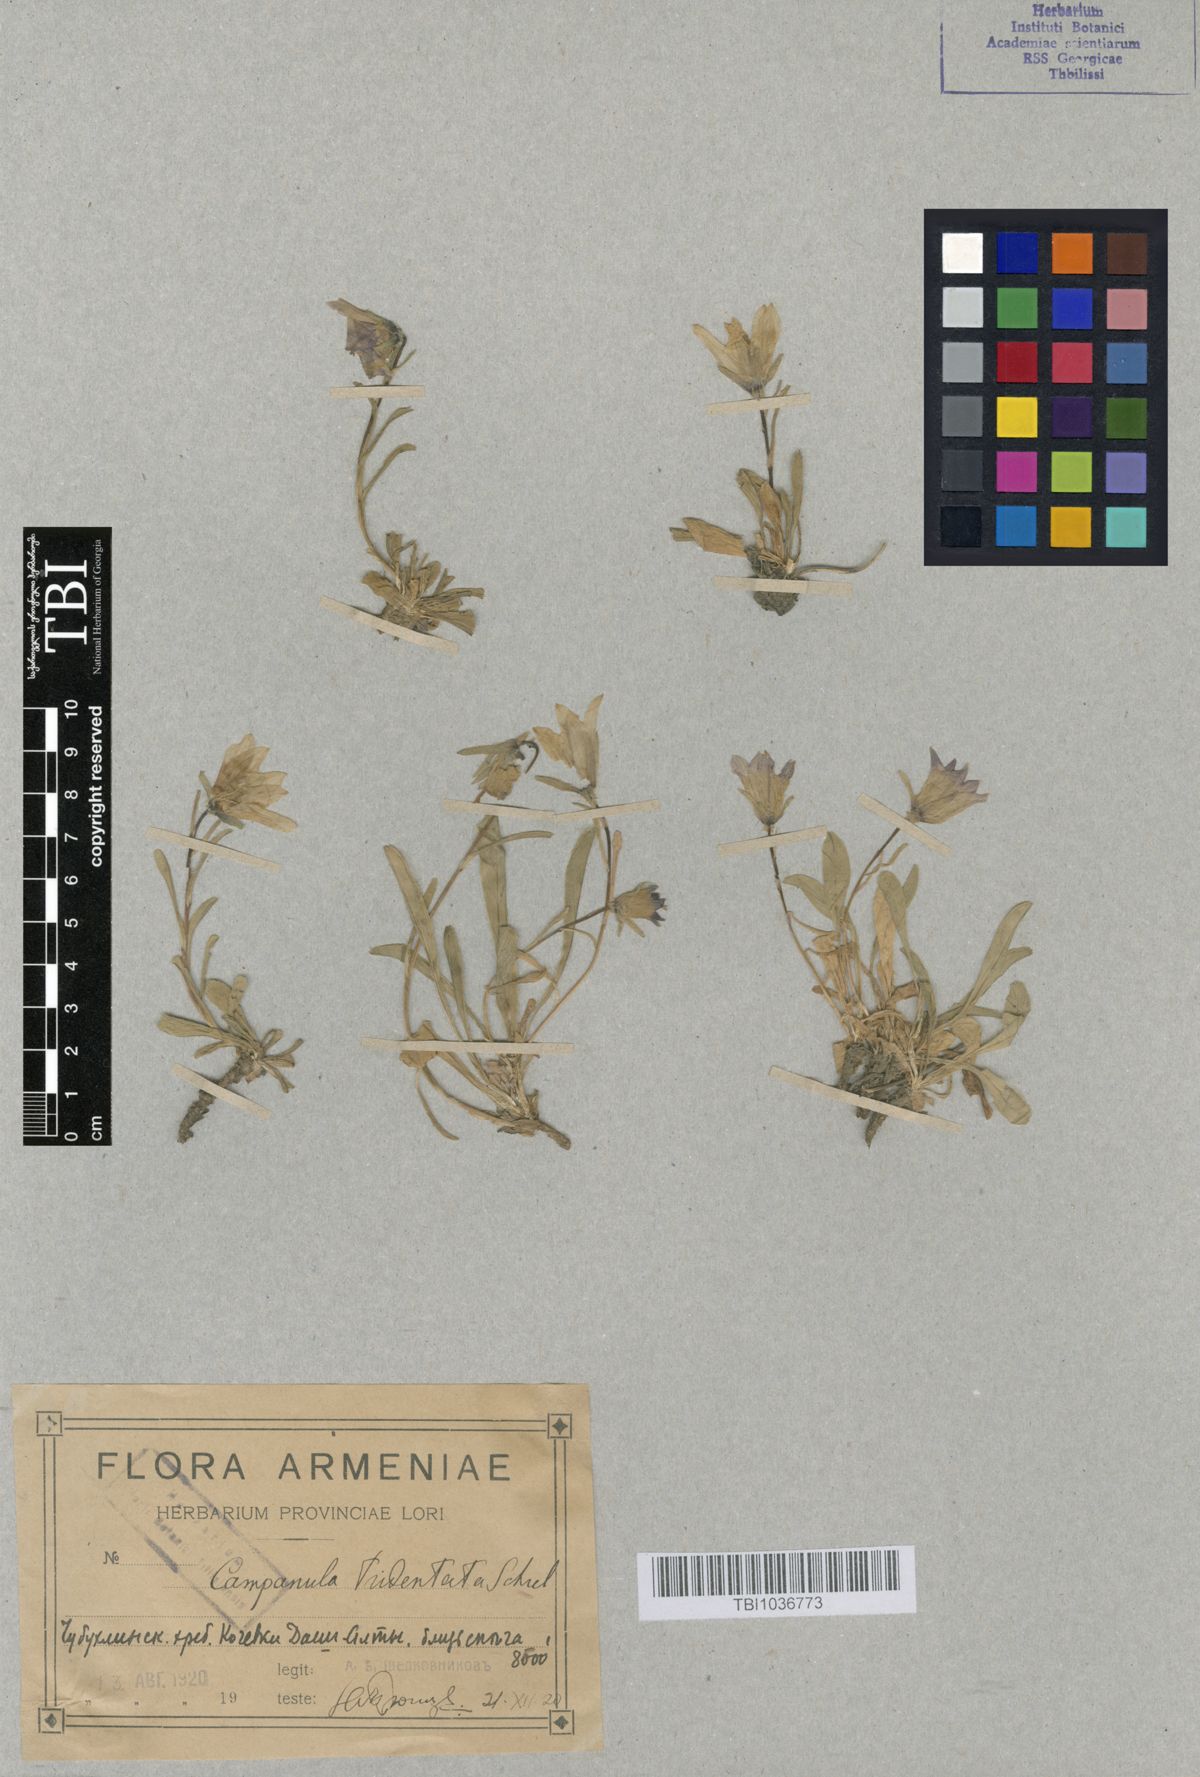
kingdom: Plantae
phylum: Tracheophyta
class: Magnoliopsida
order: Asterales
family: Campanulaceae
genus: Campanula
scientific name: Campanula tridentata
